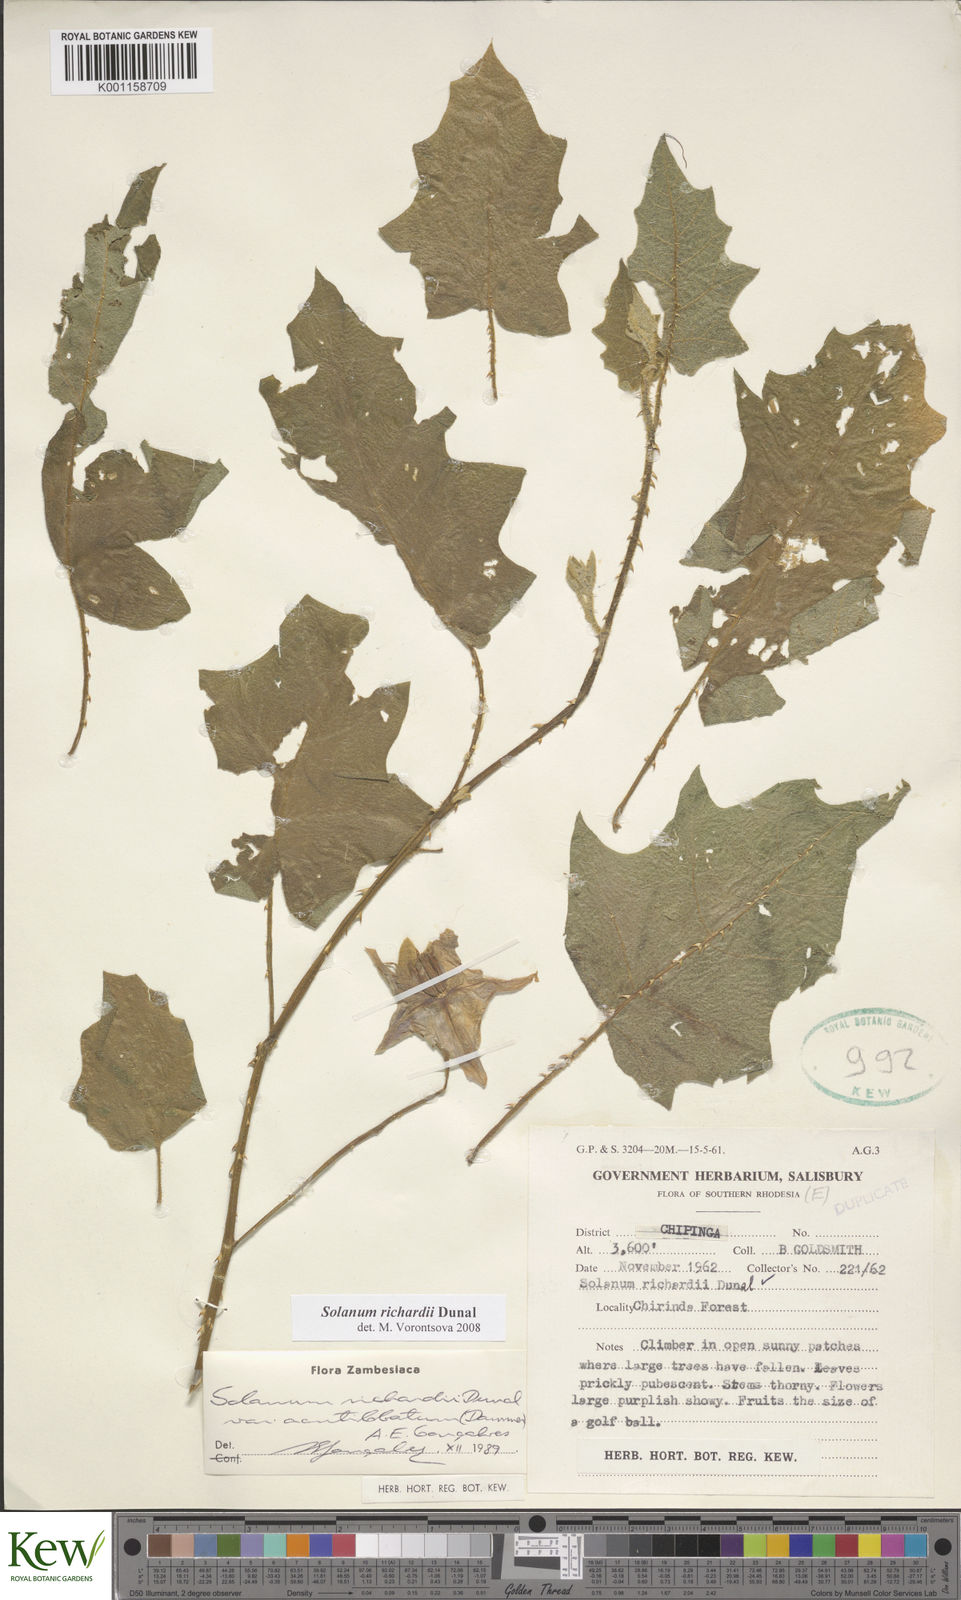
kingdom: Plantae
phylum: Tracheophyta
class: Magnoliopsida
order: Solanales
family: Solanaceae
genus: Solanum
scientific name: Solanum richardii
